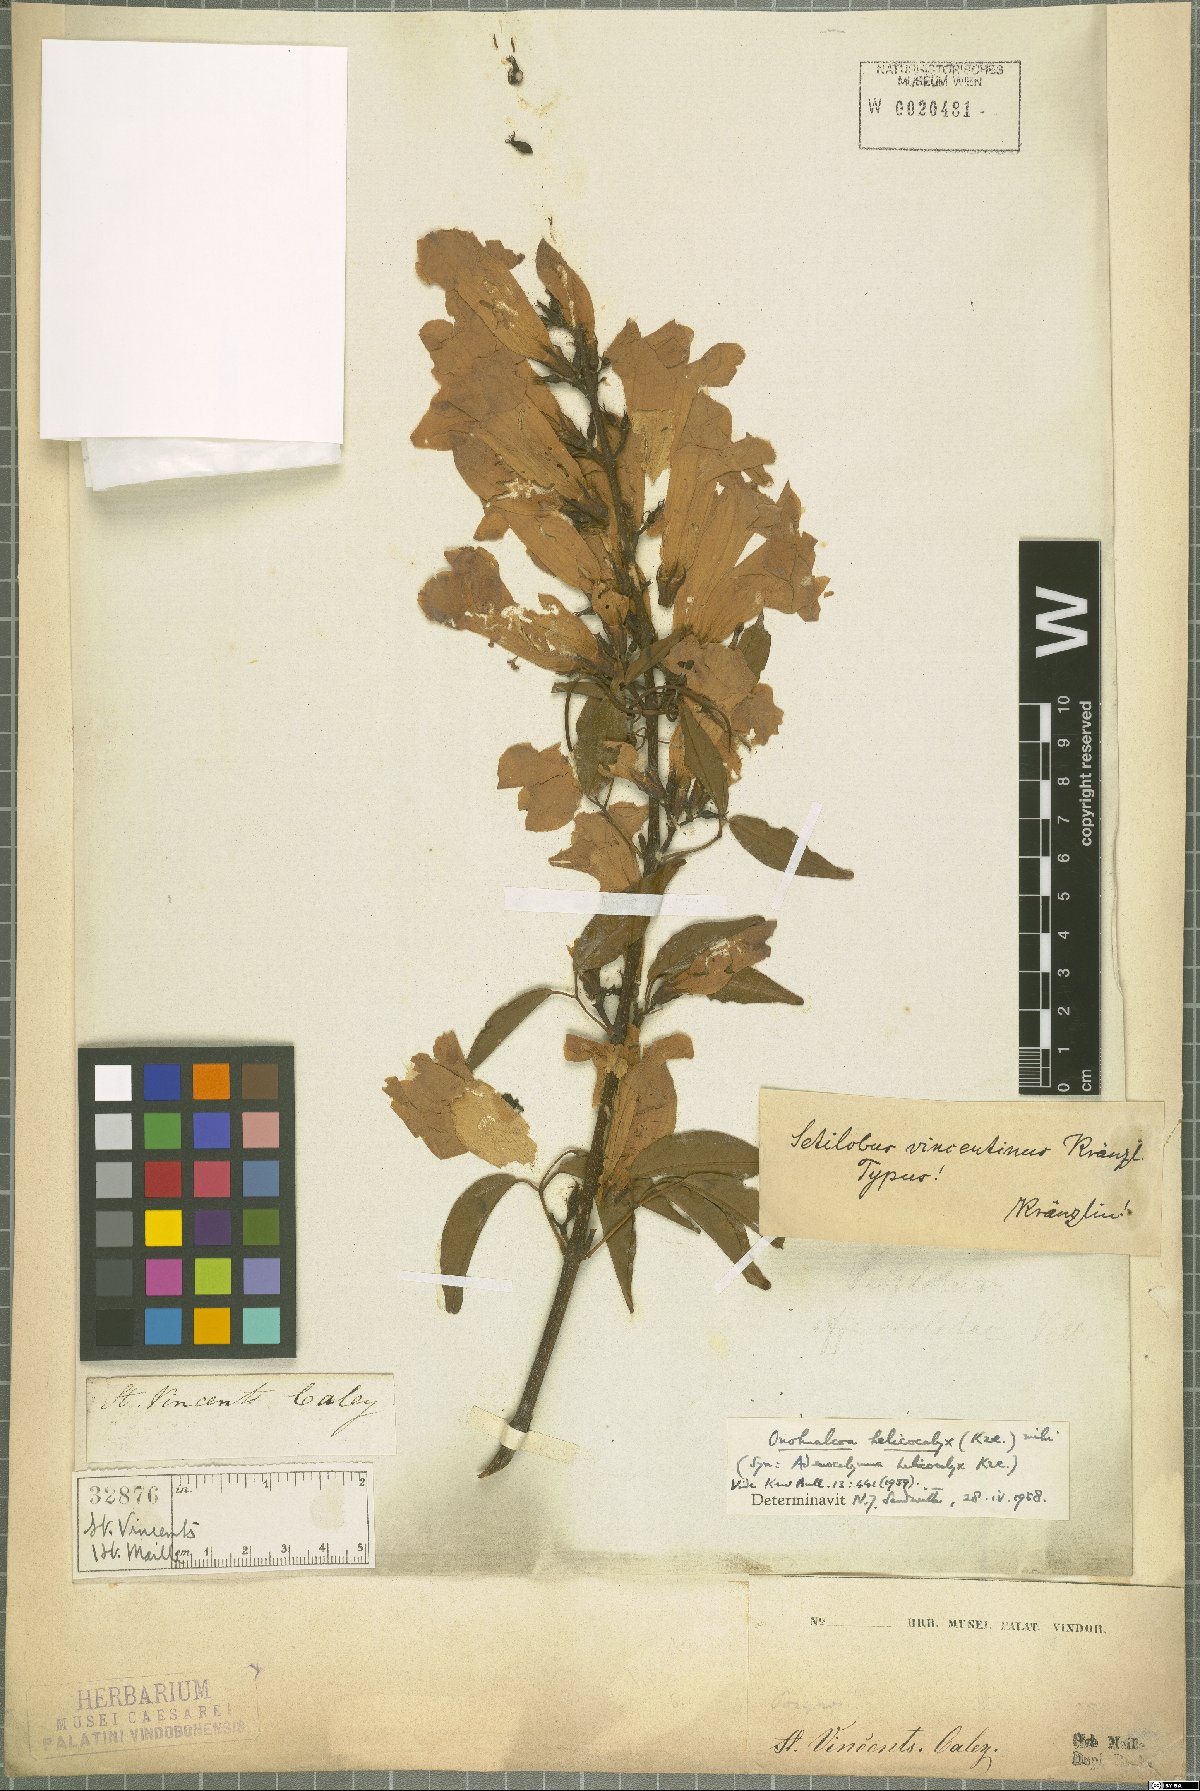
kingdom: Plantae
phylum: Tracheophyta
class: Magnoliopsida
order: Lamiales
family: Bignoniaceae
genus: Mansoa
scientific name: Mansoa verrucifera
